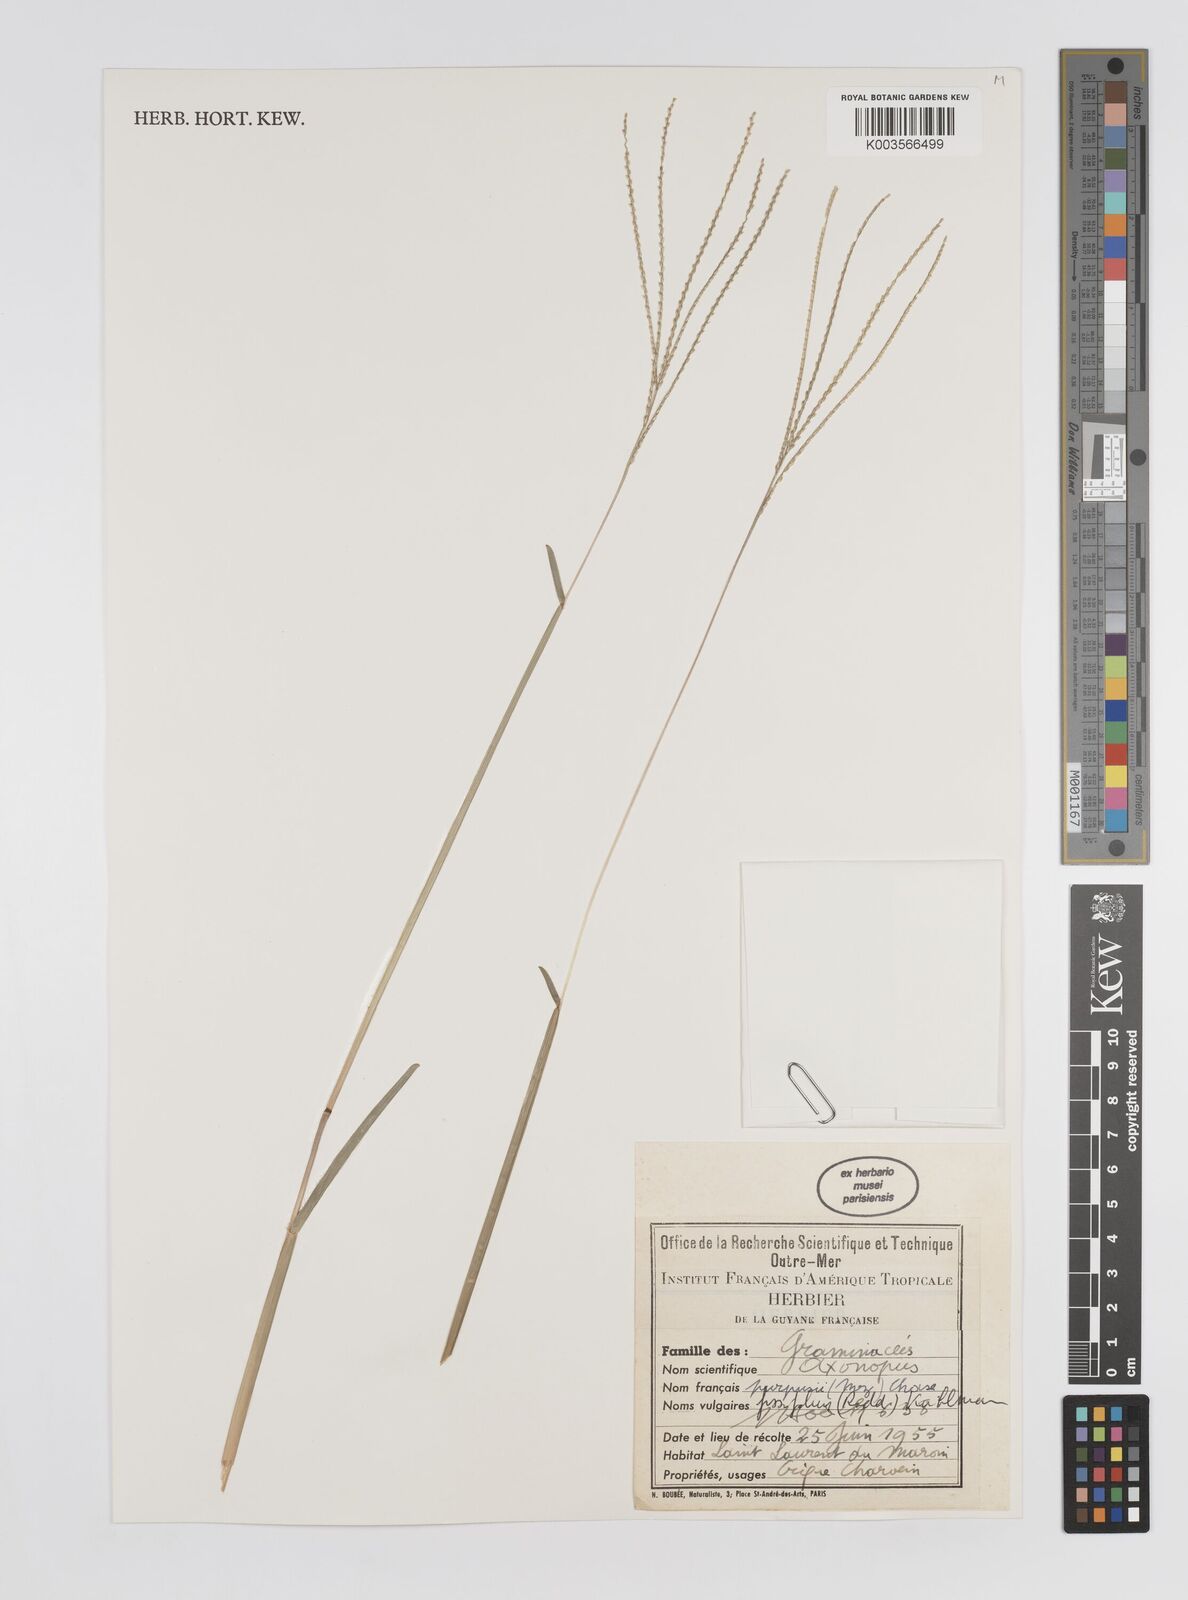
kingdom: Plantae
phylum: Tracheophyta
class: Liliopsida
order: Poales
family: Poaceae
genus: Axonopus
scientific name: Axonopus purpusii
